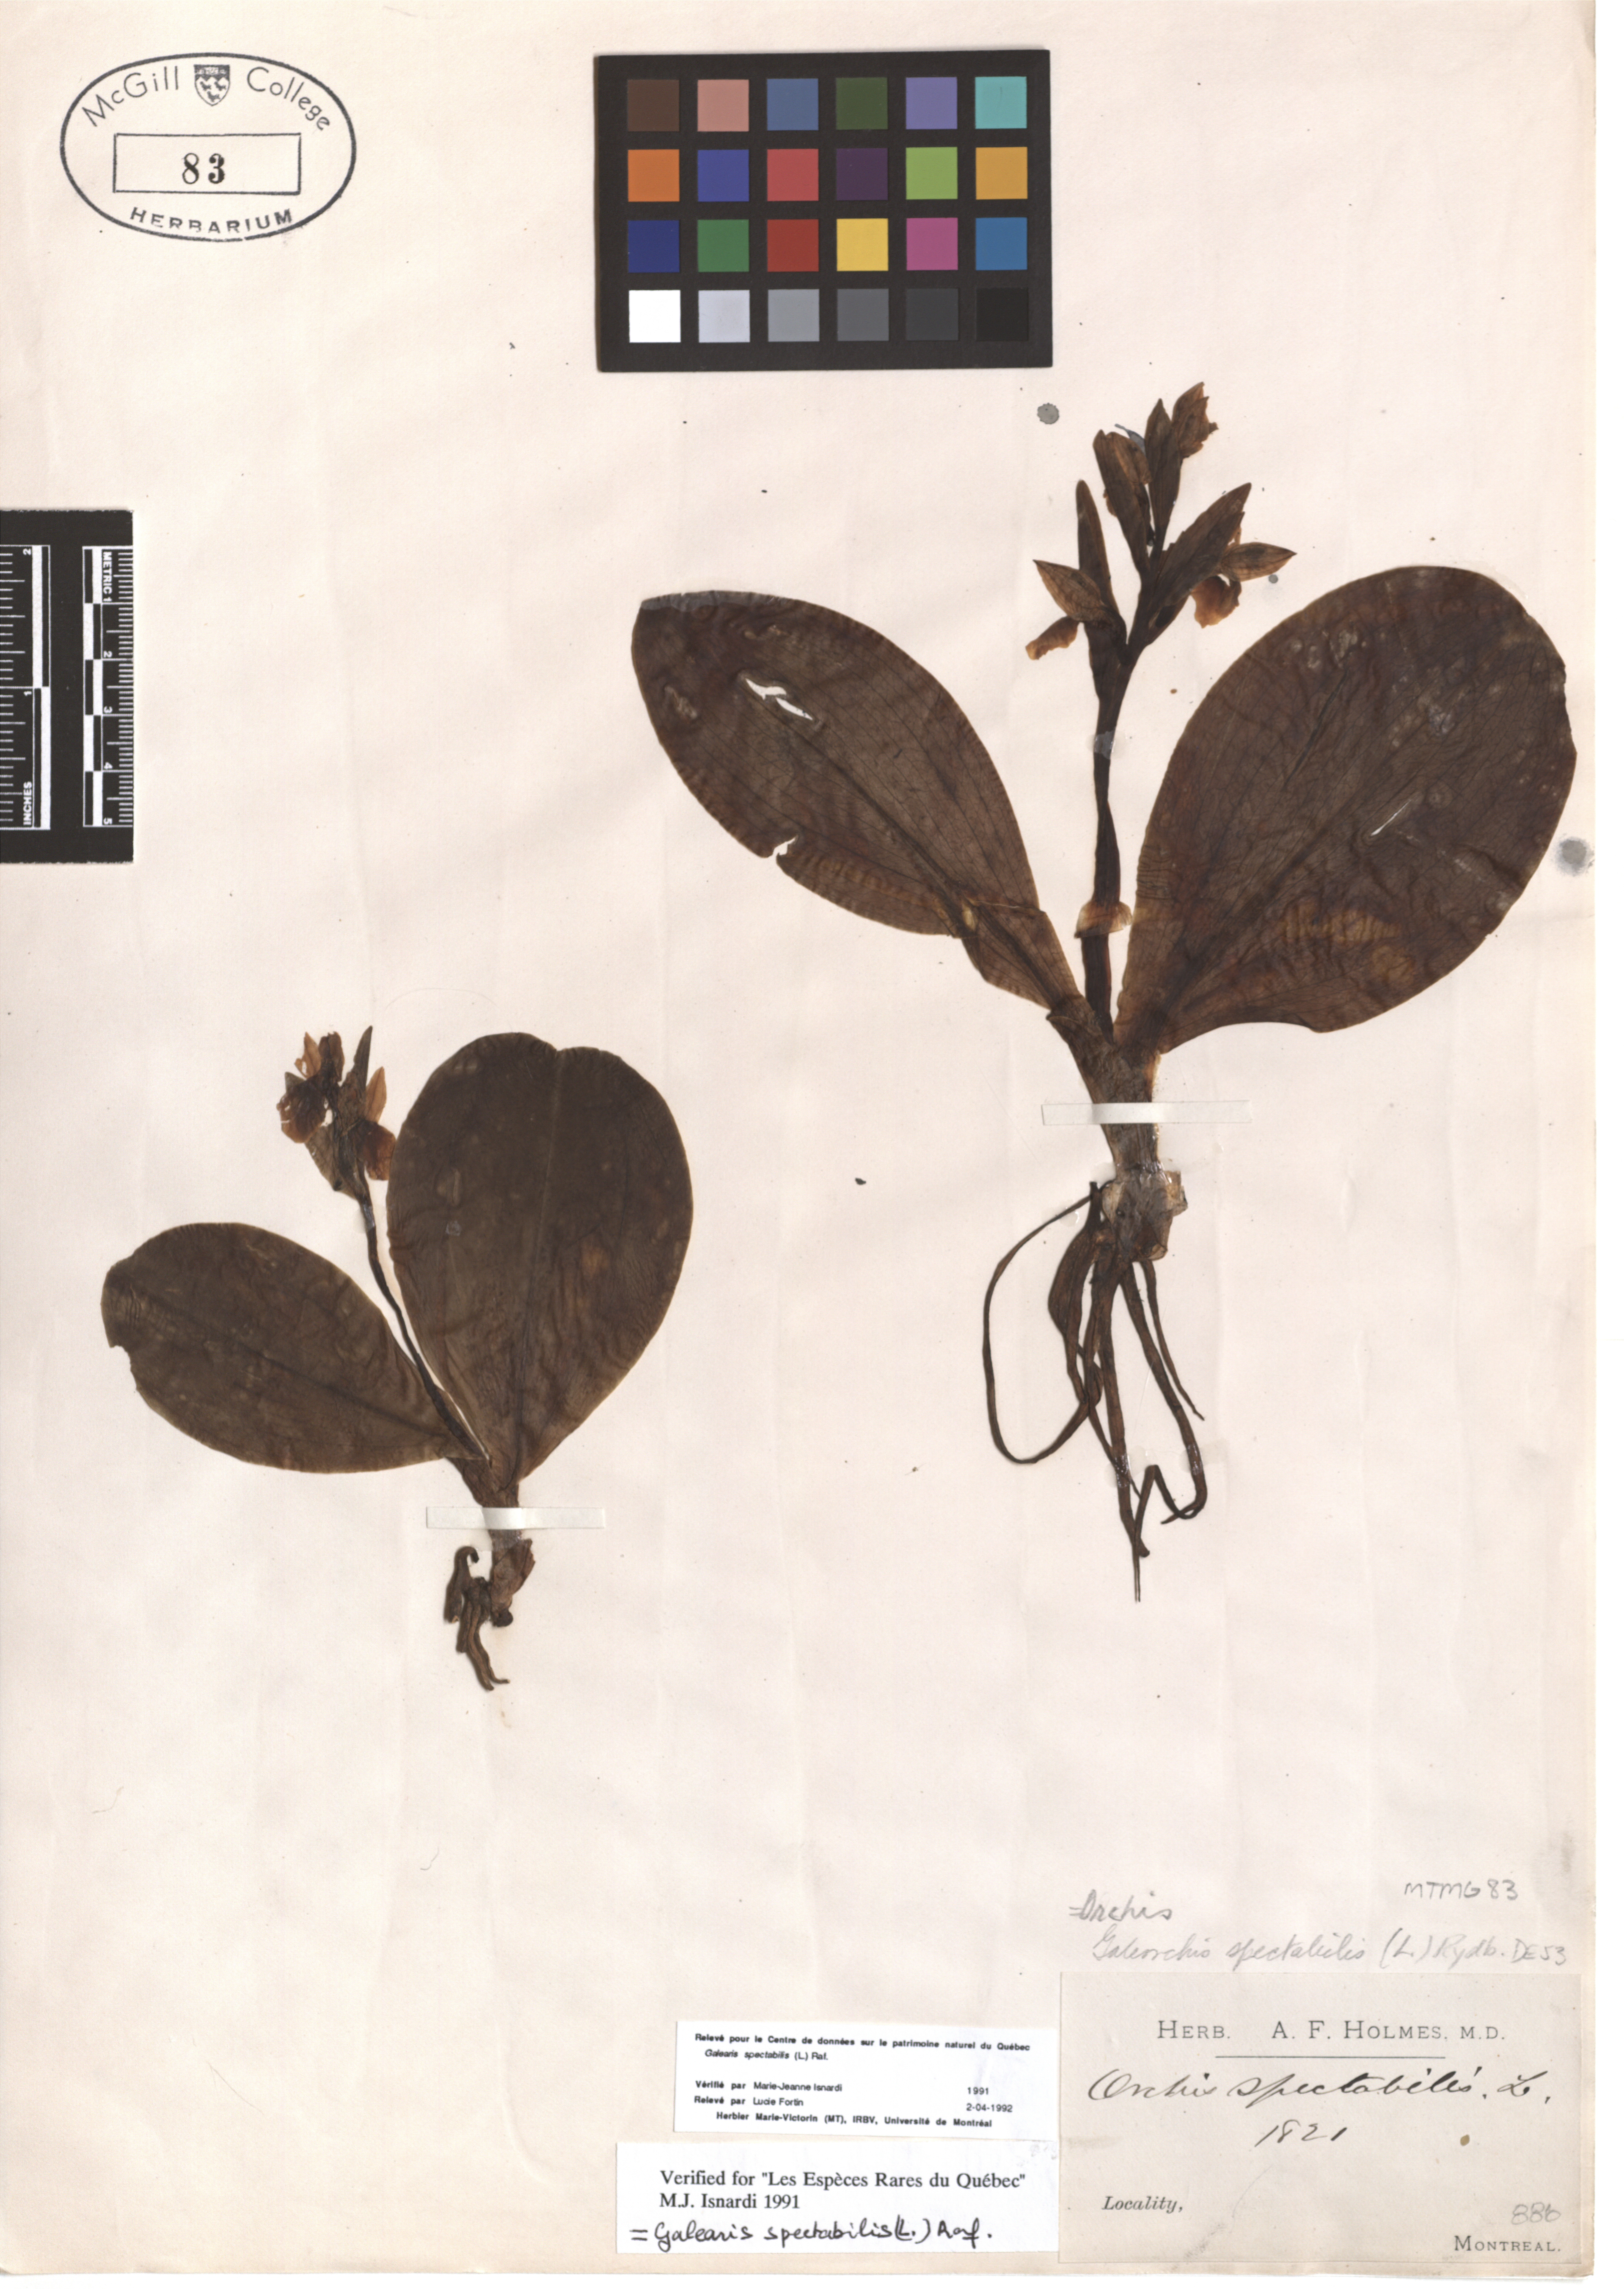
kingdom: Plantae
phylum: Tracheophyta
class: Liliopsida
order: Asparagales
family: Orchidaceae
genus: Galearis
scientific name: Galearis spectabilis
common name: Purple-hooded orchis
